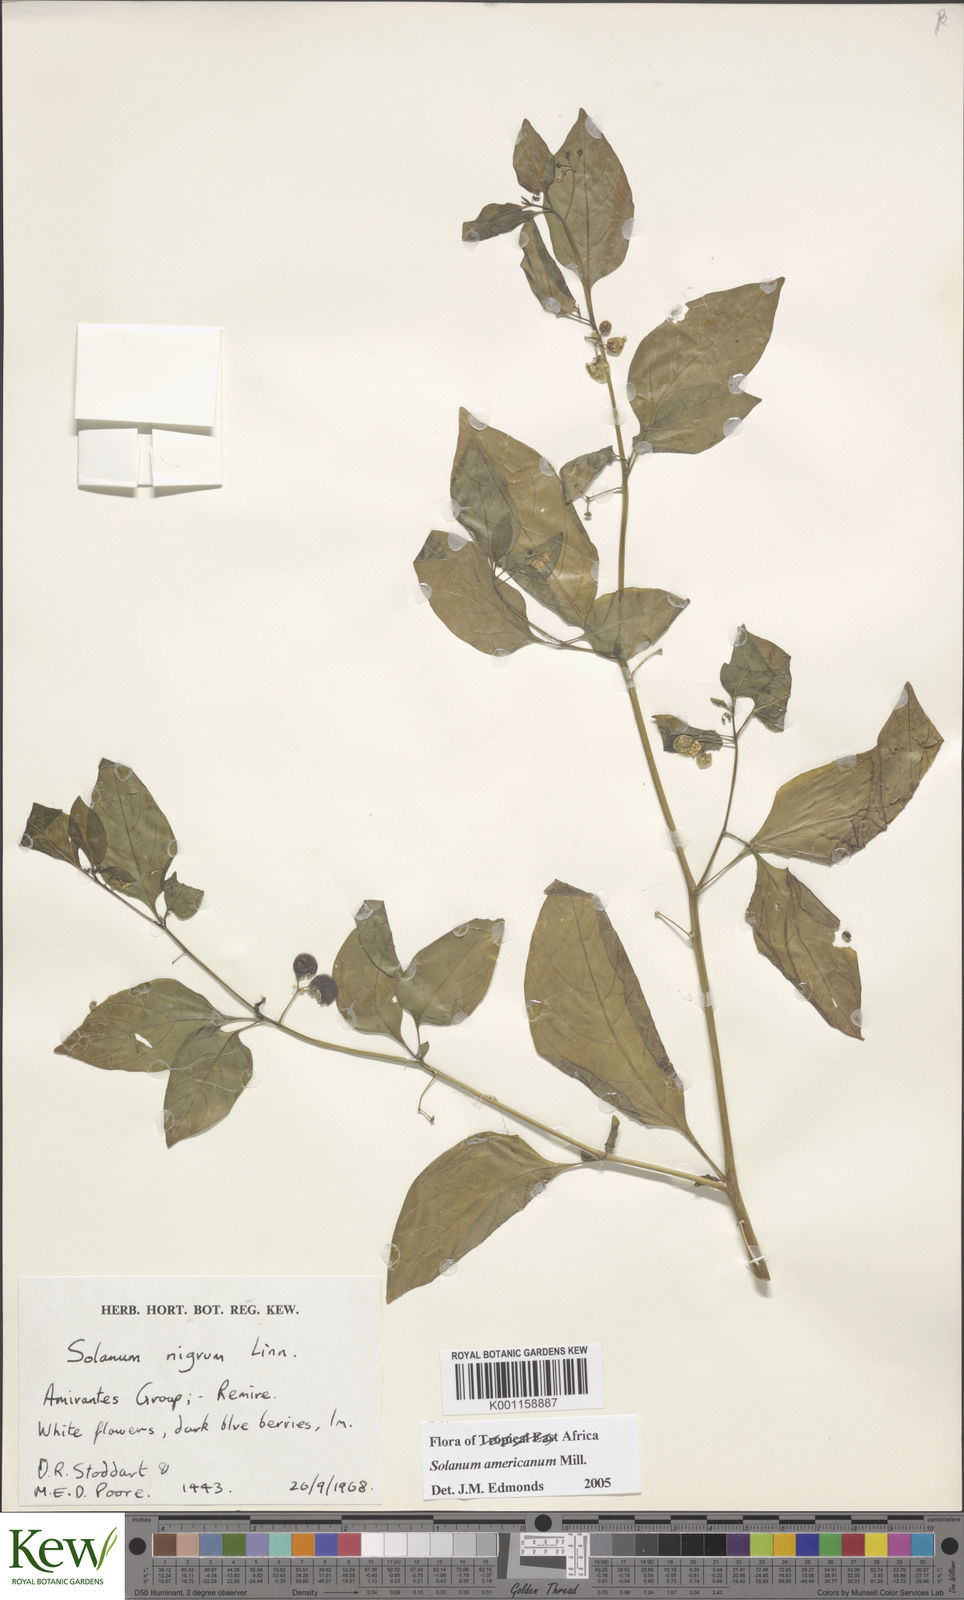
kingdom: Plantae
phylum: Tracheophyta
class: Magnoliopsida
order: Solanales
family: Solanaceae
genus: Solanum
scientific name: Solanum americanum
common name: American black nightshade
